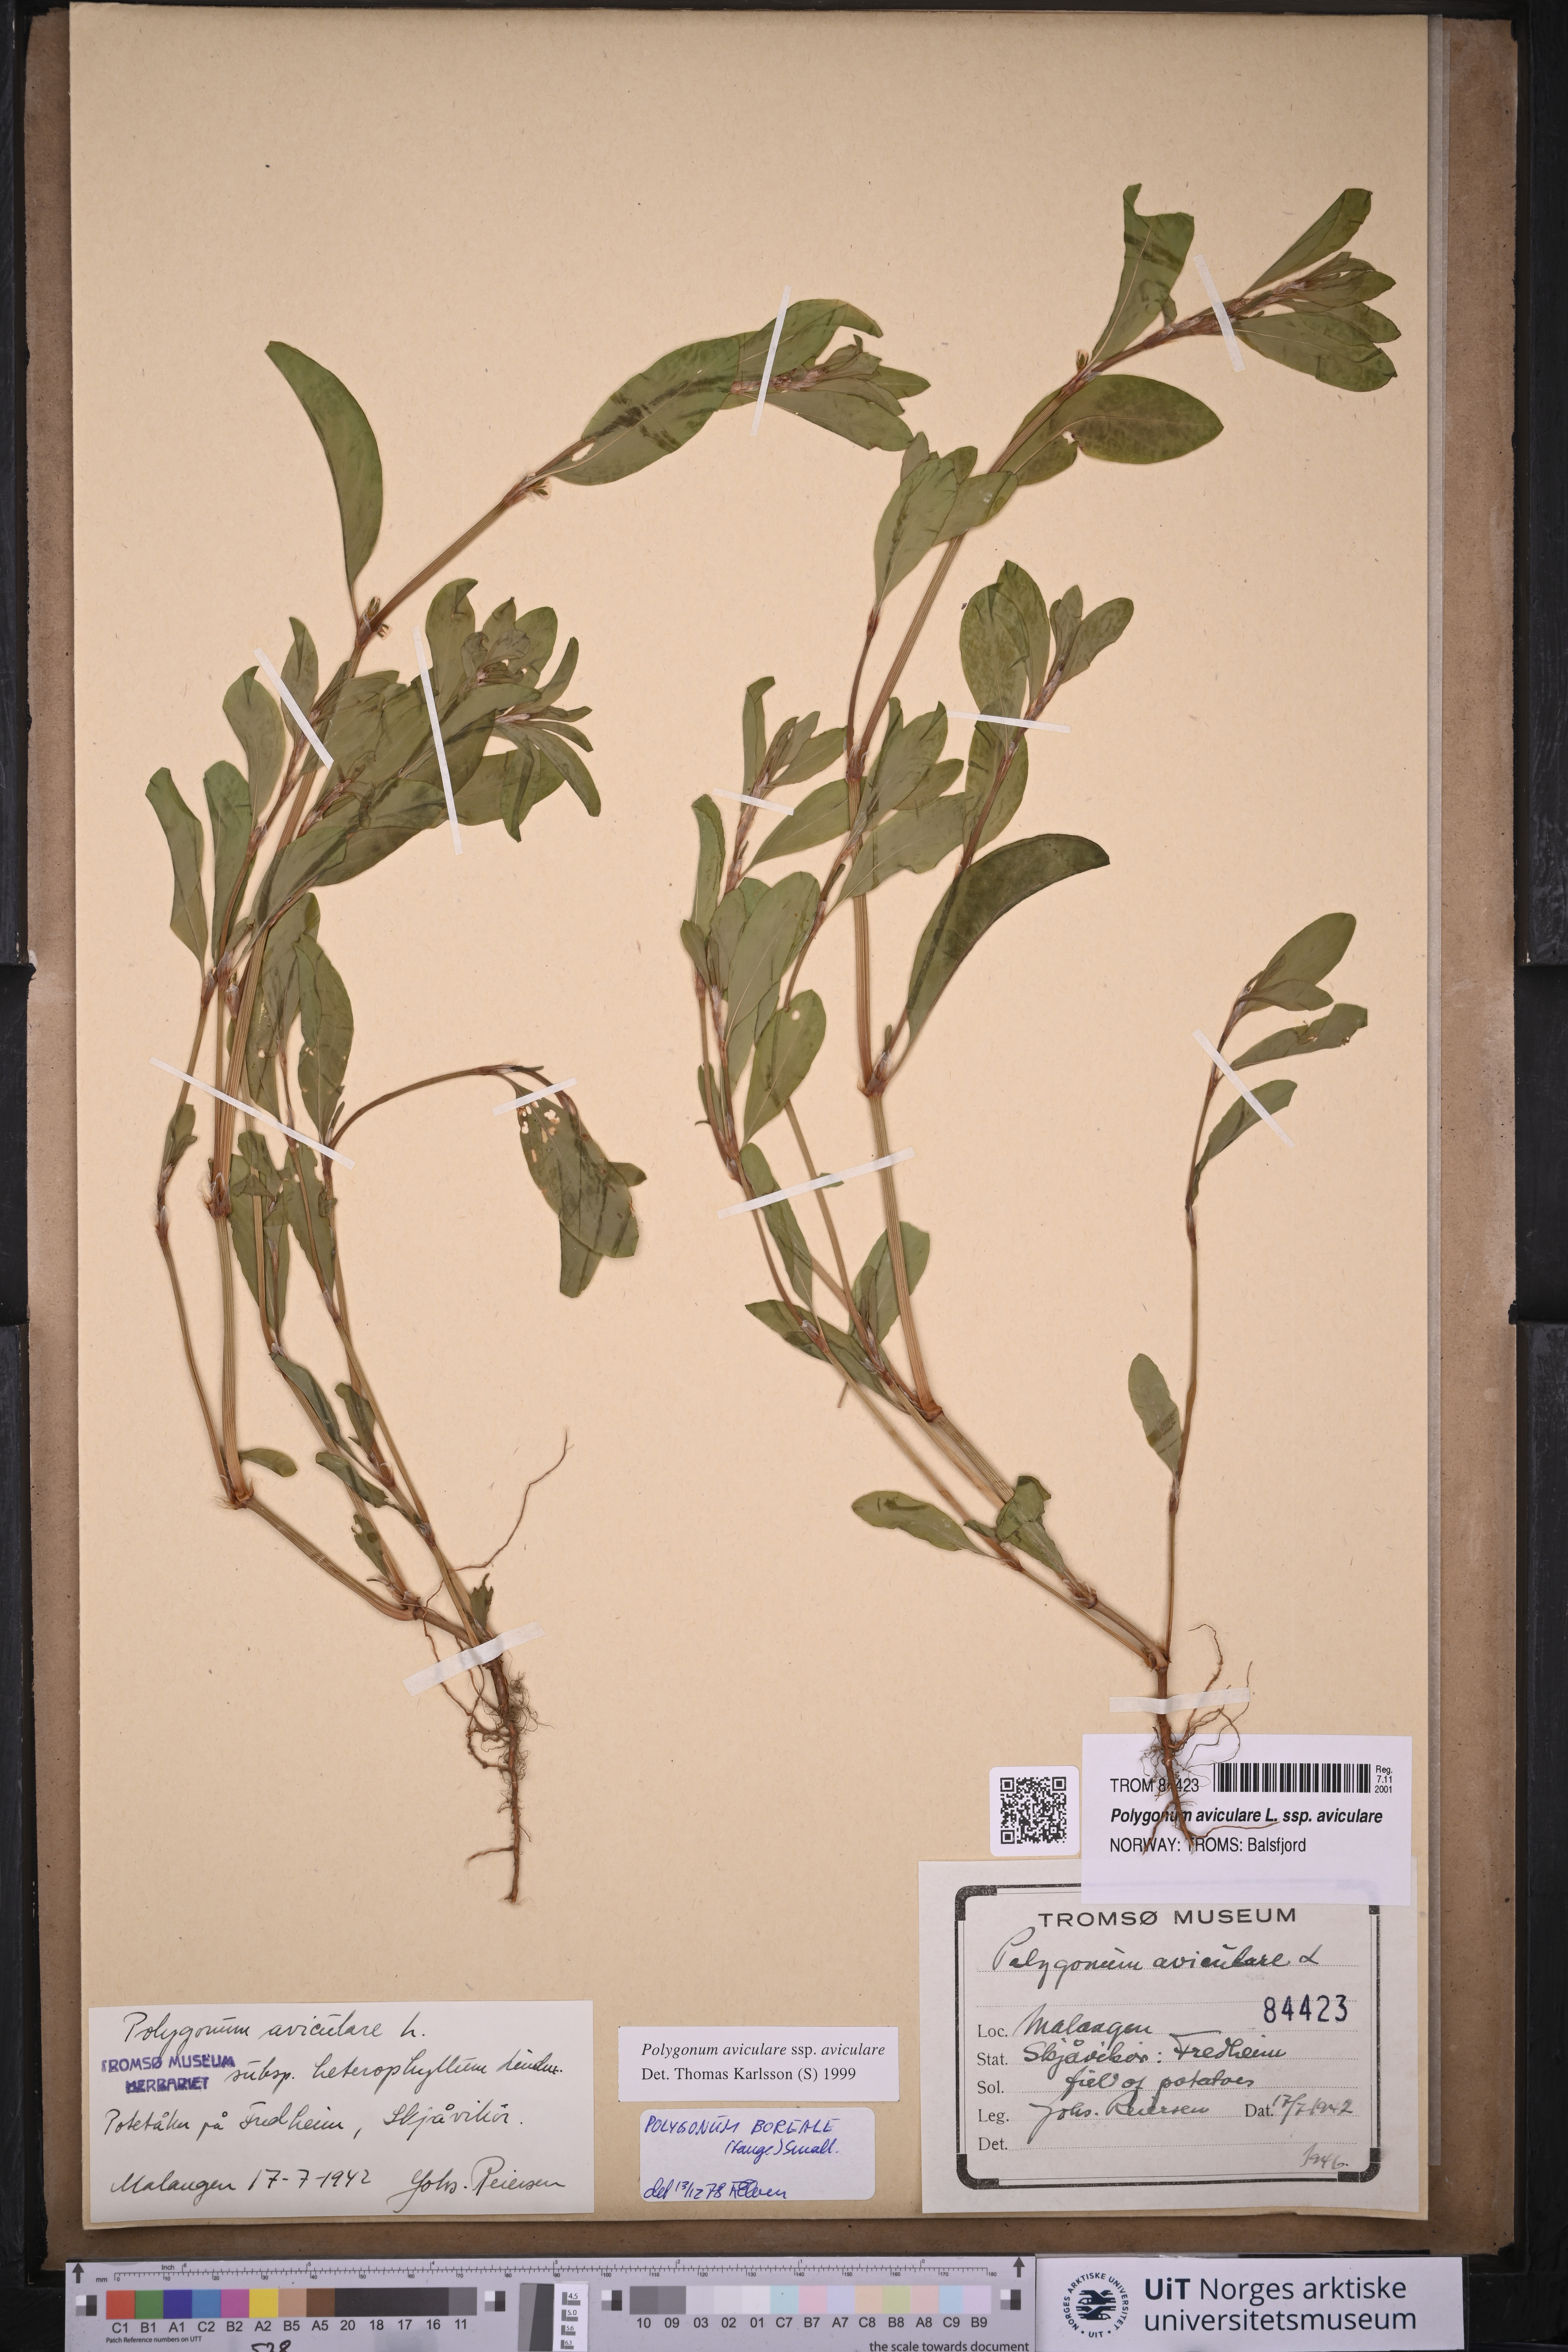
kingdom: Plantae
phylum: Tracheophyta
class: Magnoliopsida
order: Caryophyllales
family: Polygonaceae
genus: Polygonum
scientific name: Polygonum aviculare
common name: Prostrate knotweed
